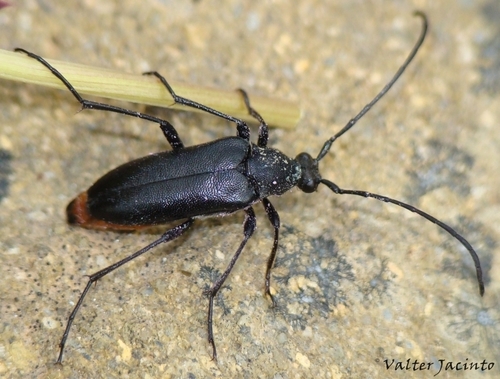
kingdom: Animalia
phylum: Arthropoda
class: Insecta
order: Coleoptera
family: Cerambycidae
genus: Stenurella
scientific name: Stenurella nigra
